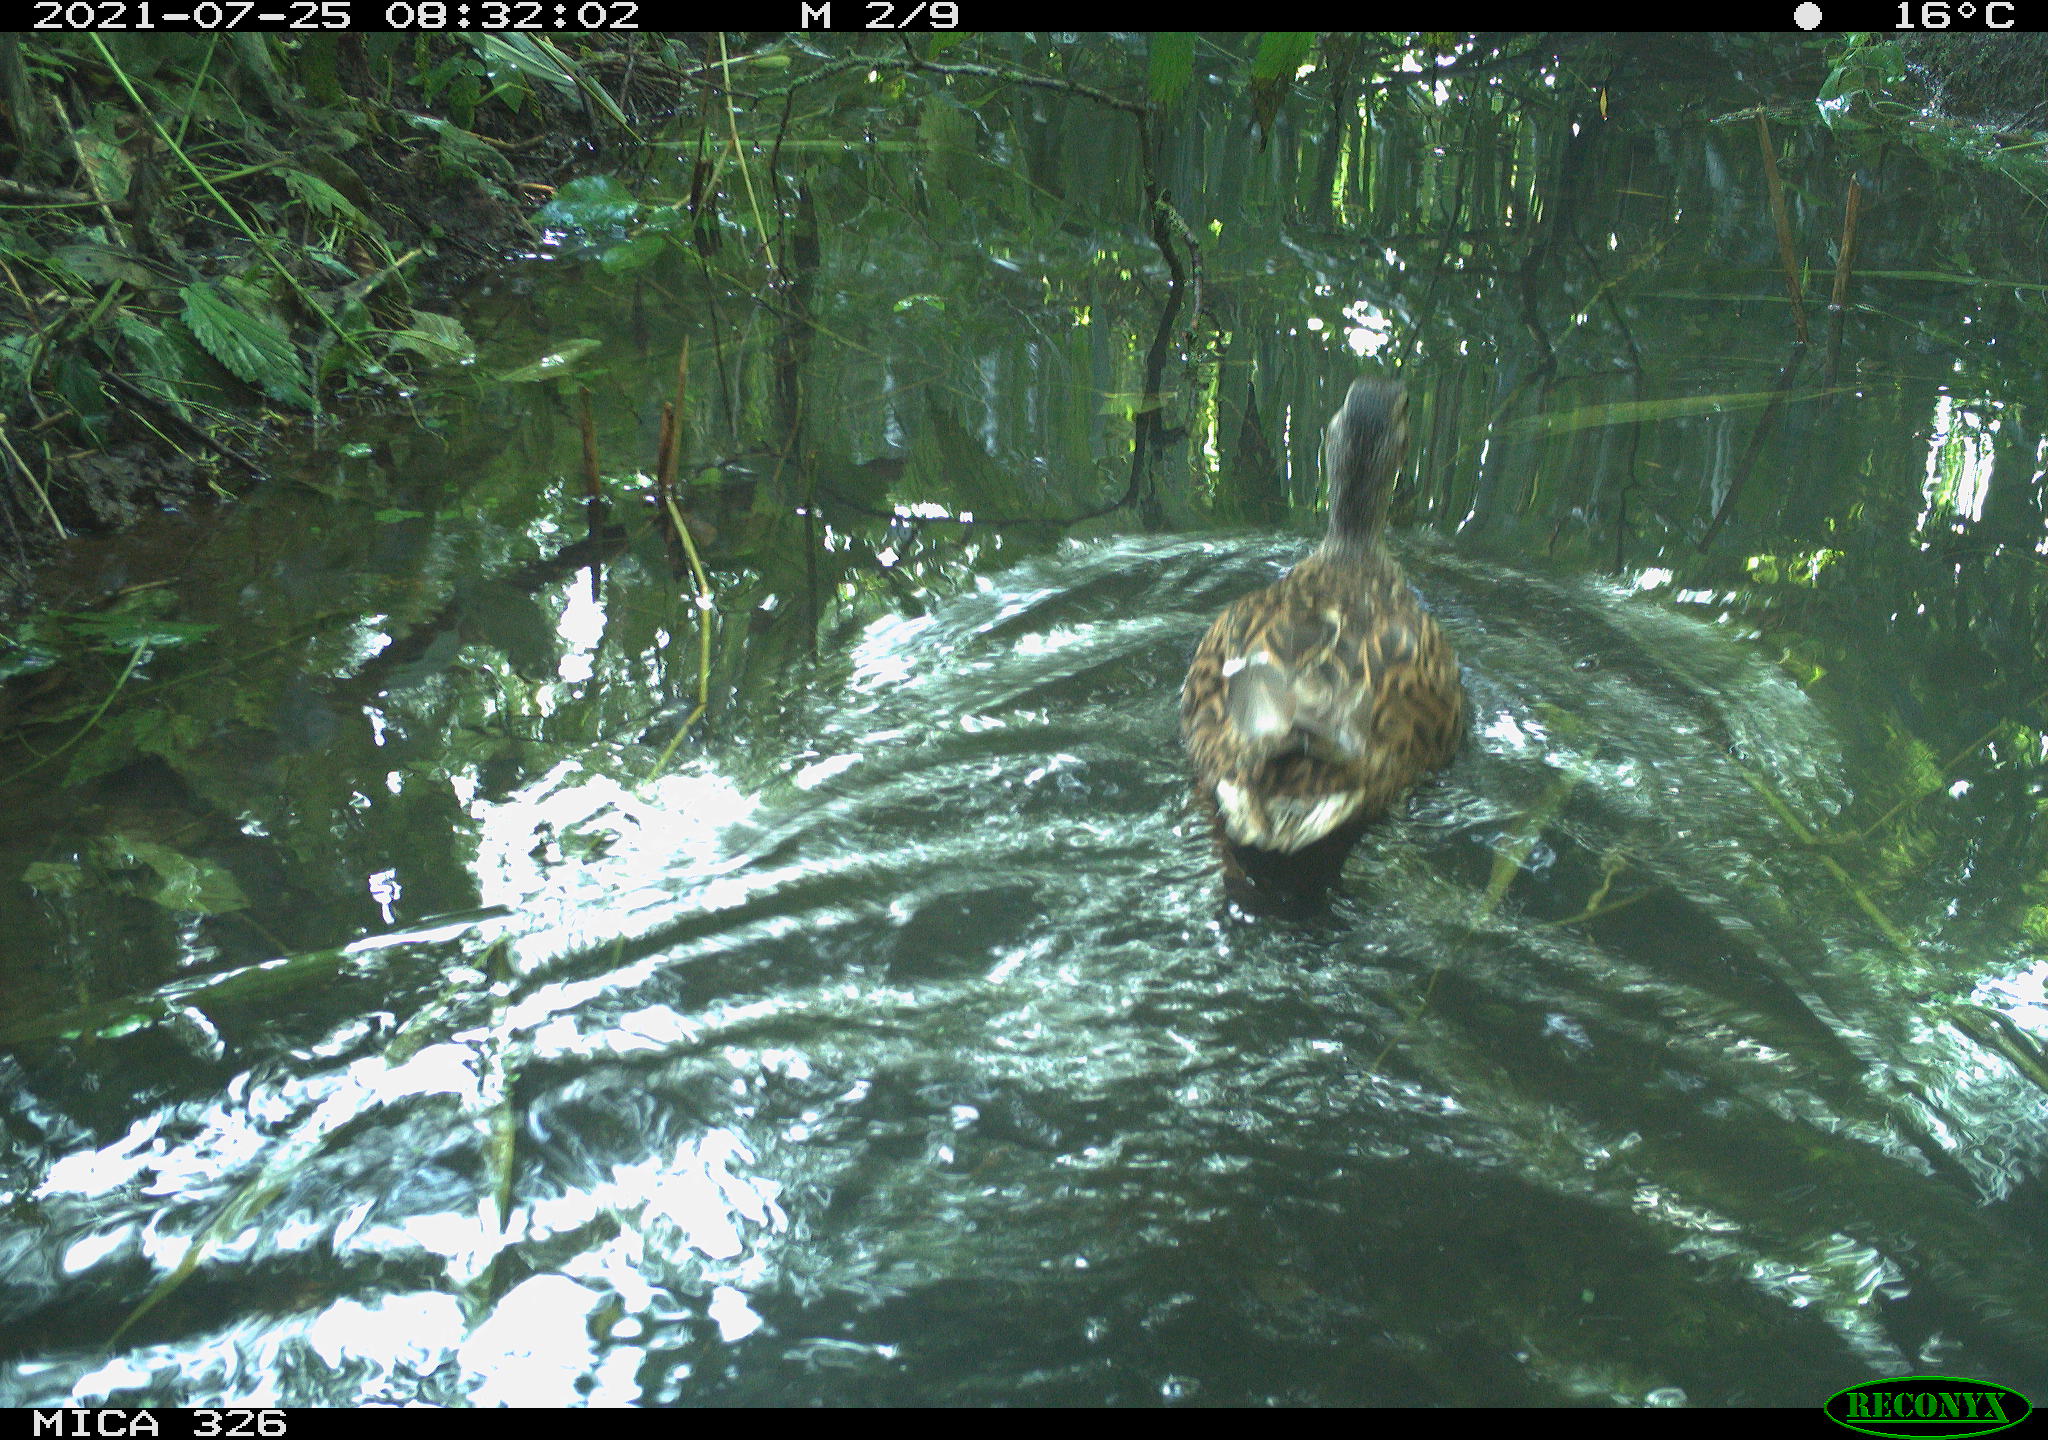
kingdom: Animalia
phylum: Chordata
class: Aves
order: Anseriformes
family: Anatidae
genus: Anas
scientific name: Anas platyrhynchos
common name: Mallard
